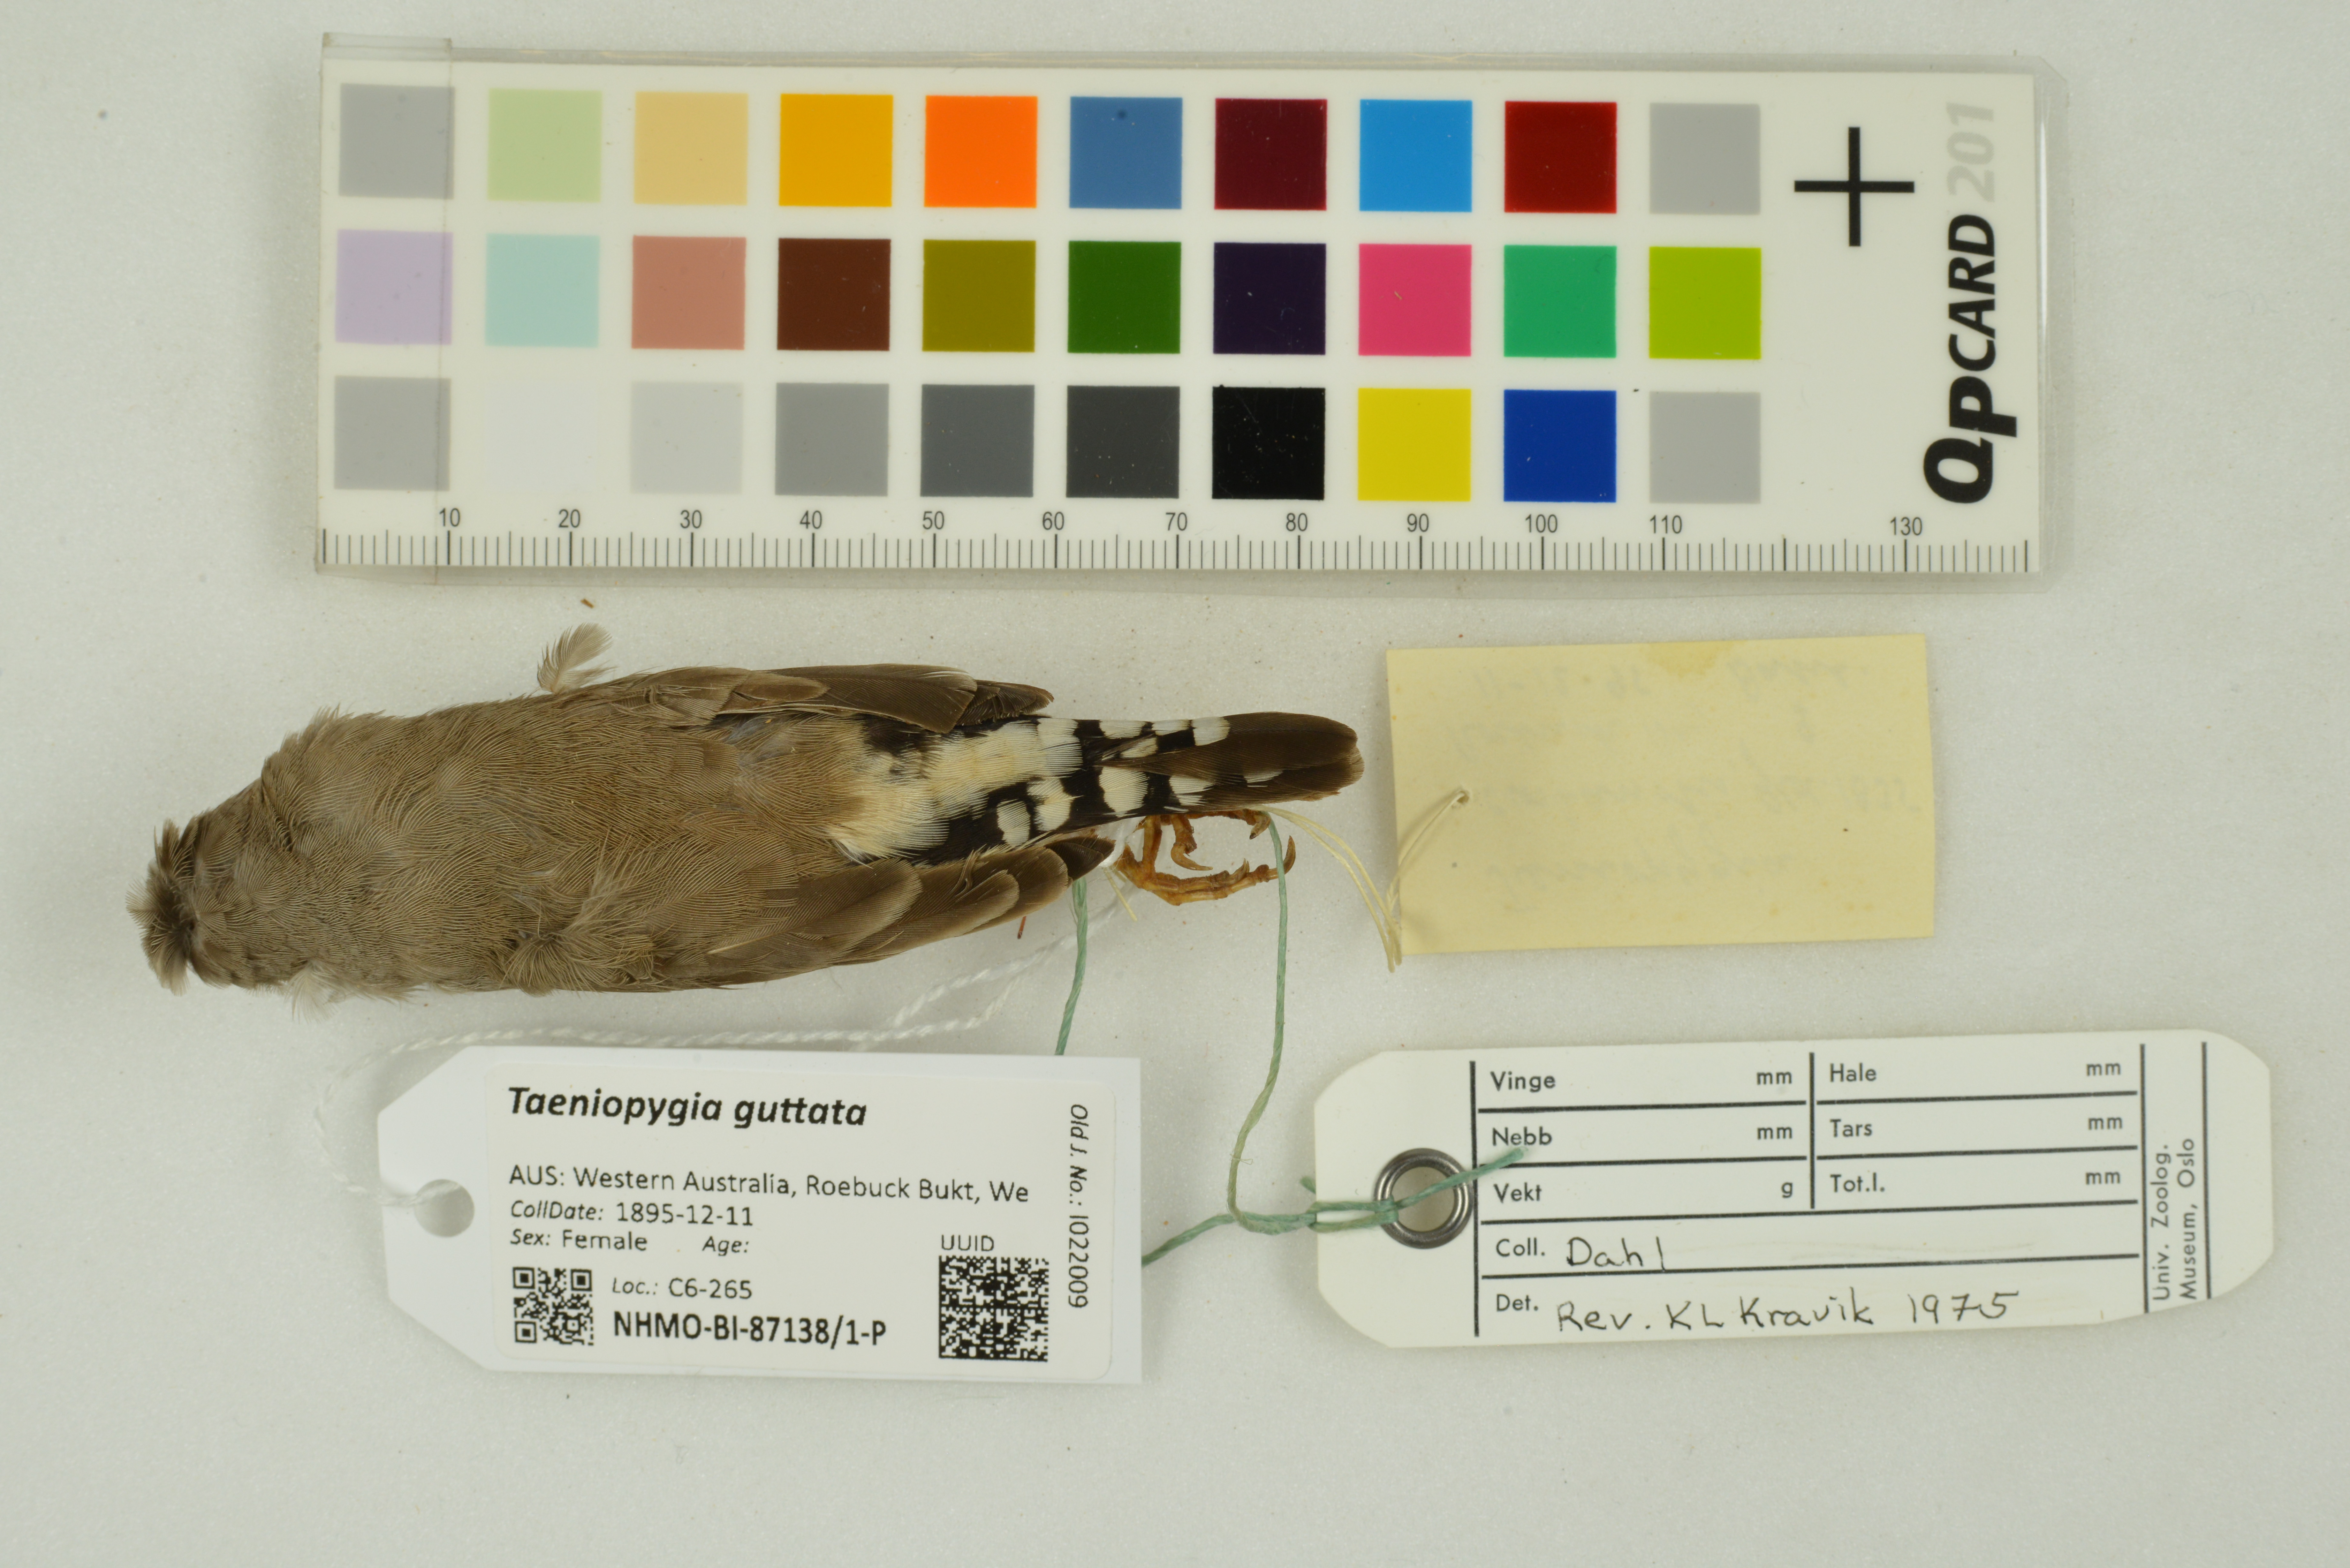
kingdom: Animalia
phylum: Chordata
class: Aves
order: Passeriformes
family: Estrildidae
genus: Taeniopygia
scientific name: Taeniopygia guttata
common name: Zebra finch
